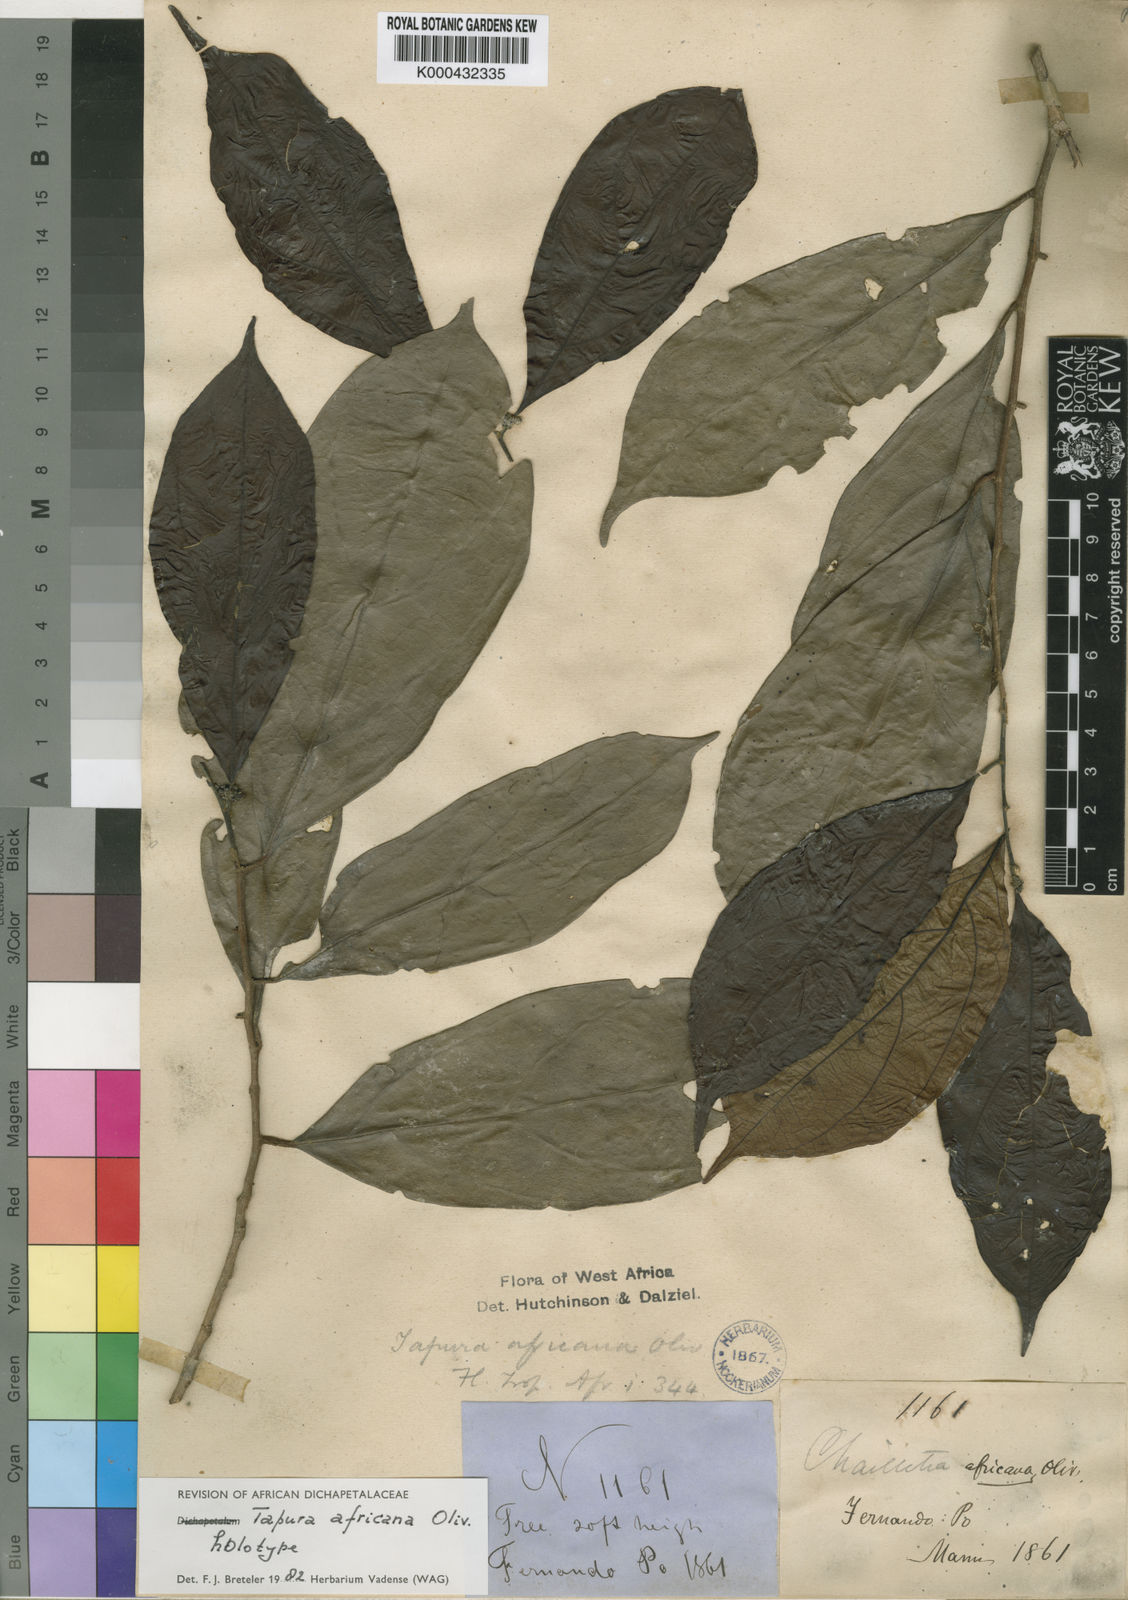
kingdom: Plantae
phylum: Tracheophyta
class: Magnoliopsida
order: Malpighiales
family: Dichapetalaceae
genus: Tapura
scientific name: Tapura africana
